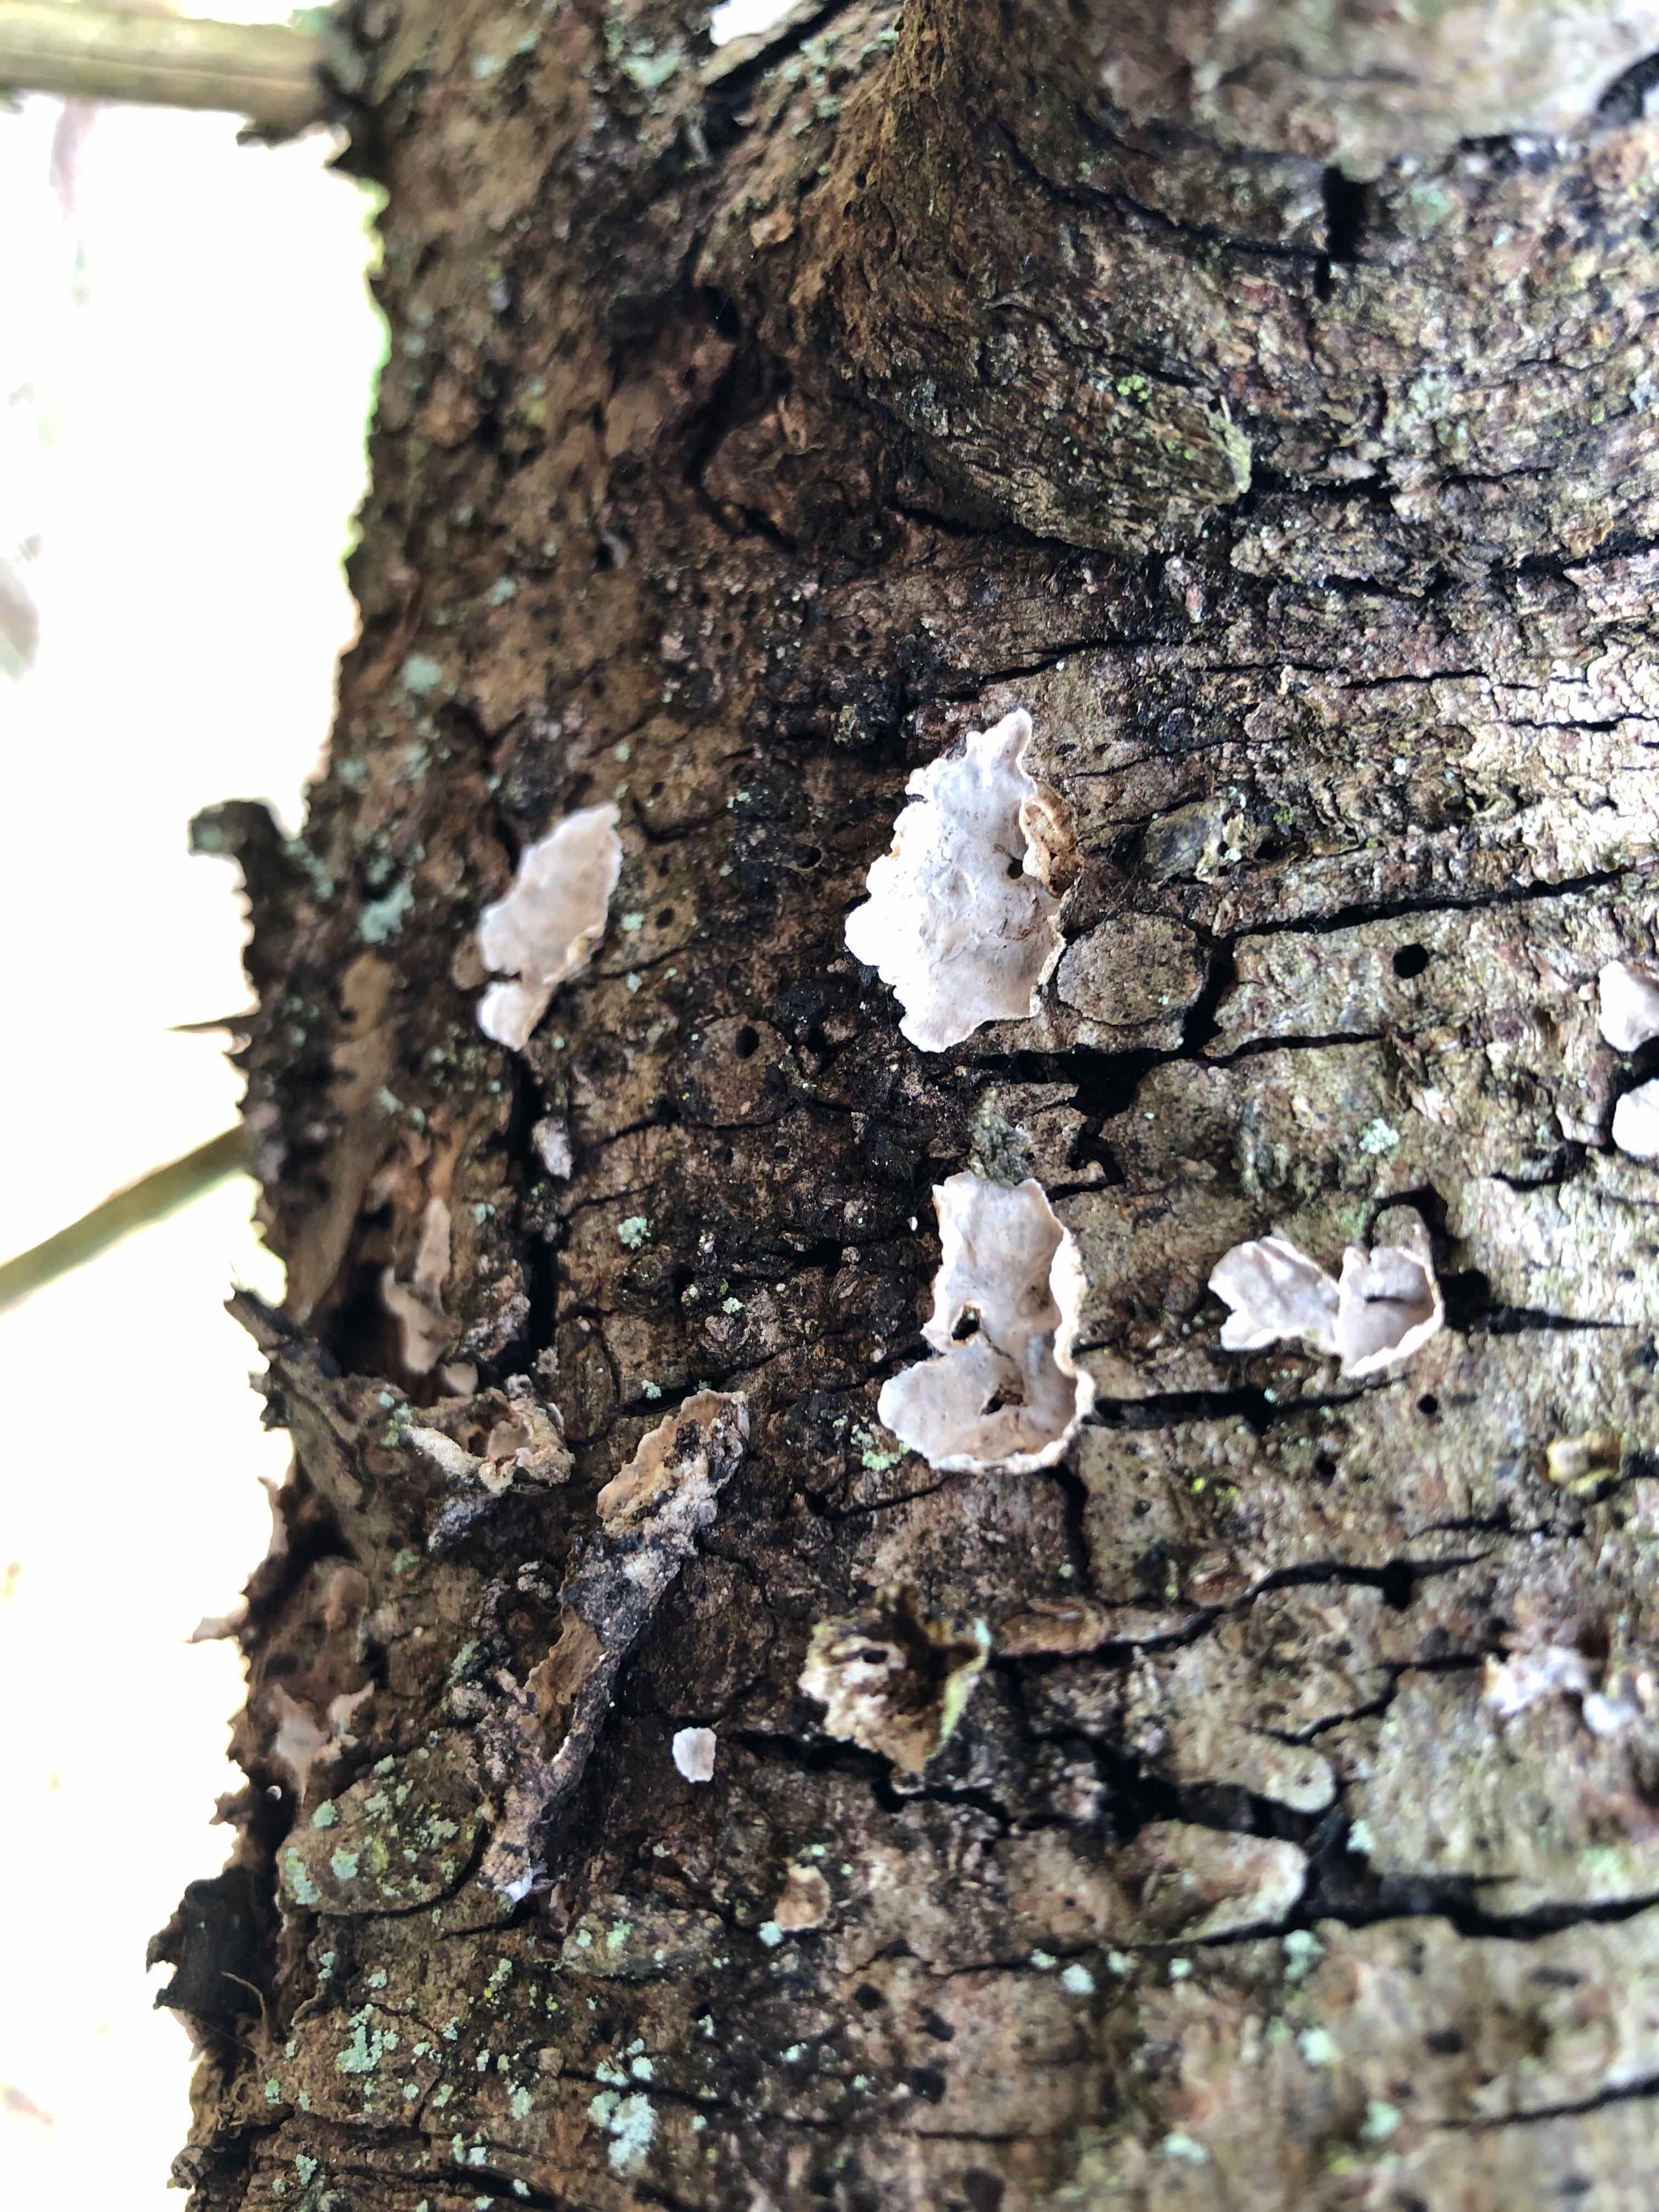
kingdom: Fungi
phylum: Basidiomycota
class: Agaricomycetes
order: Russulales
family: Stereaceae
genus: Stereum
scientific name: Stereum sanguinolentum
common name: blødende lædersvamp
